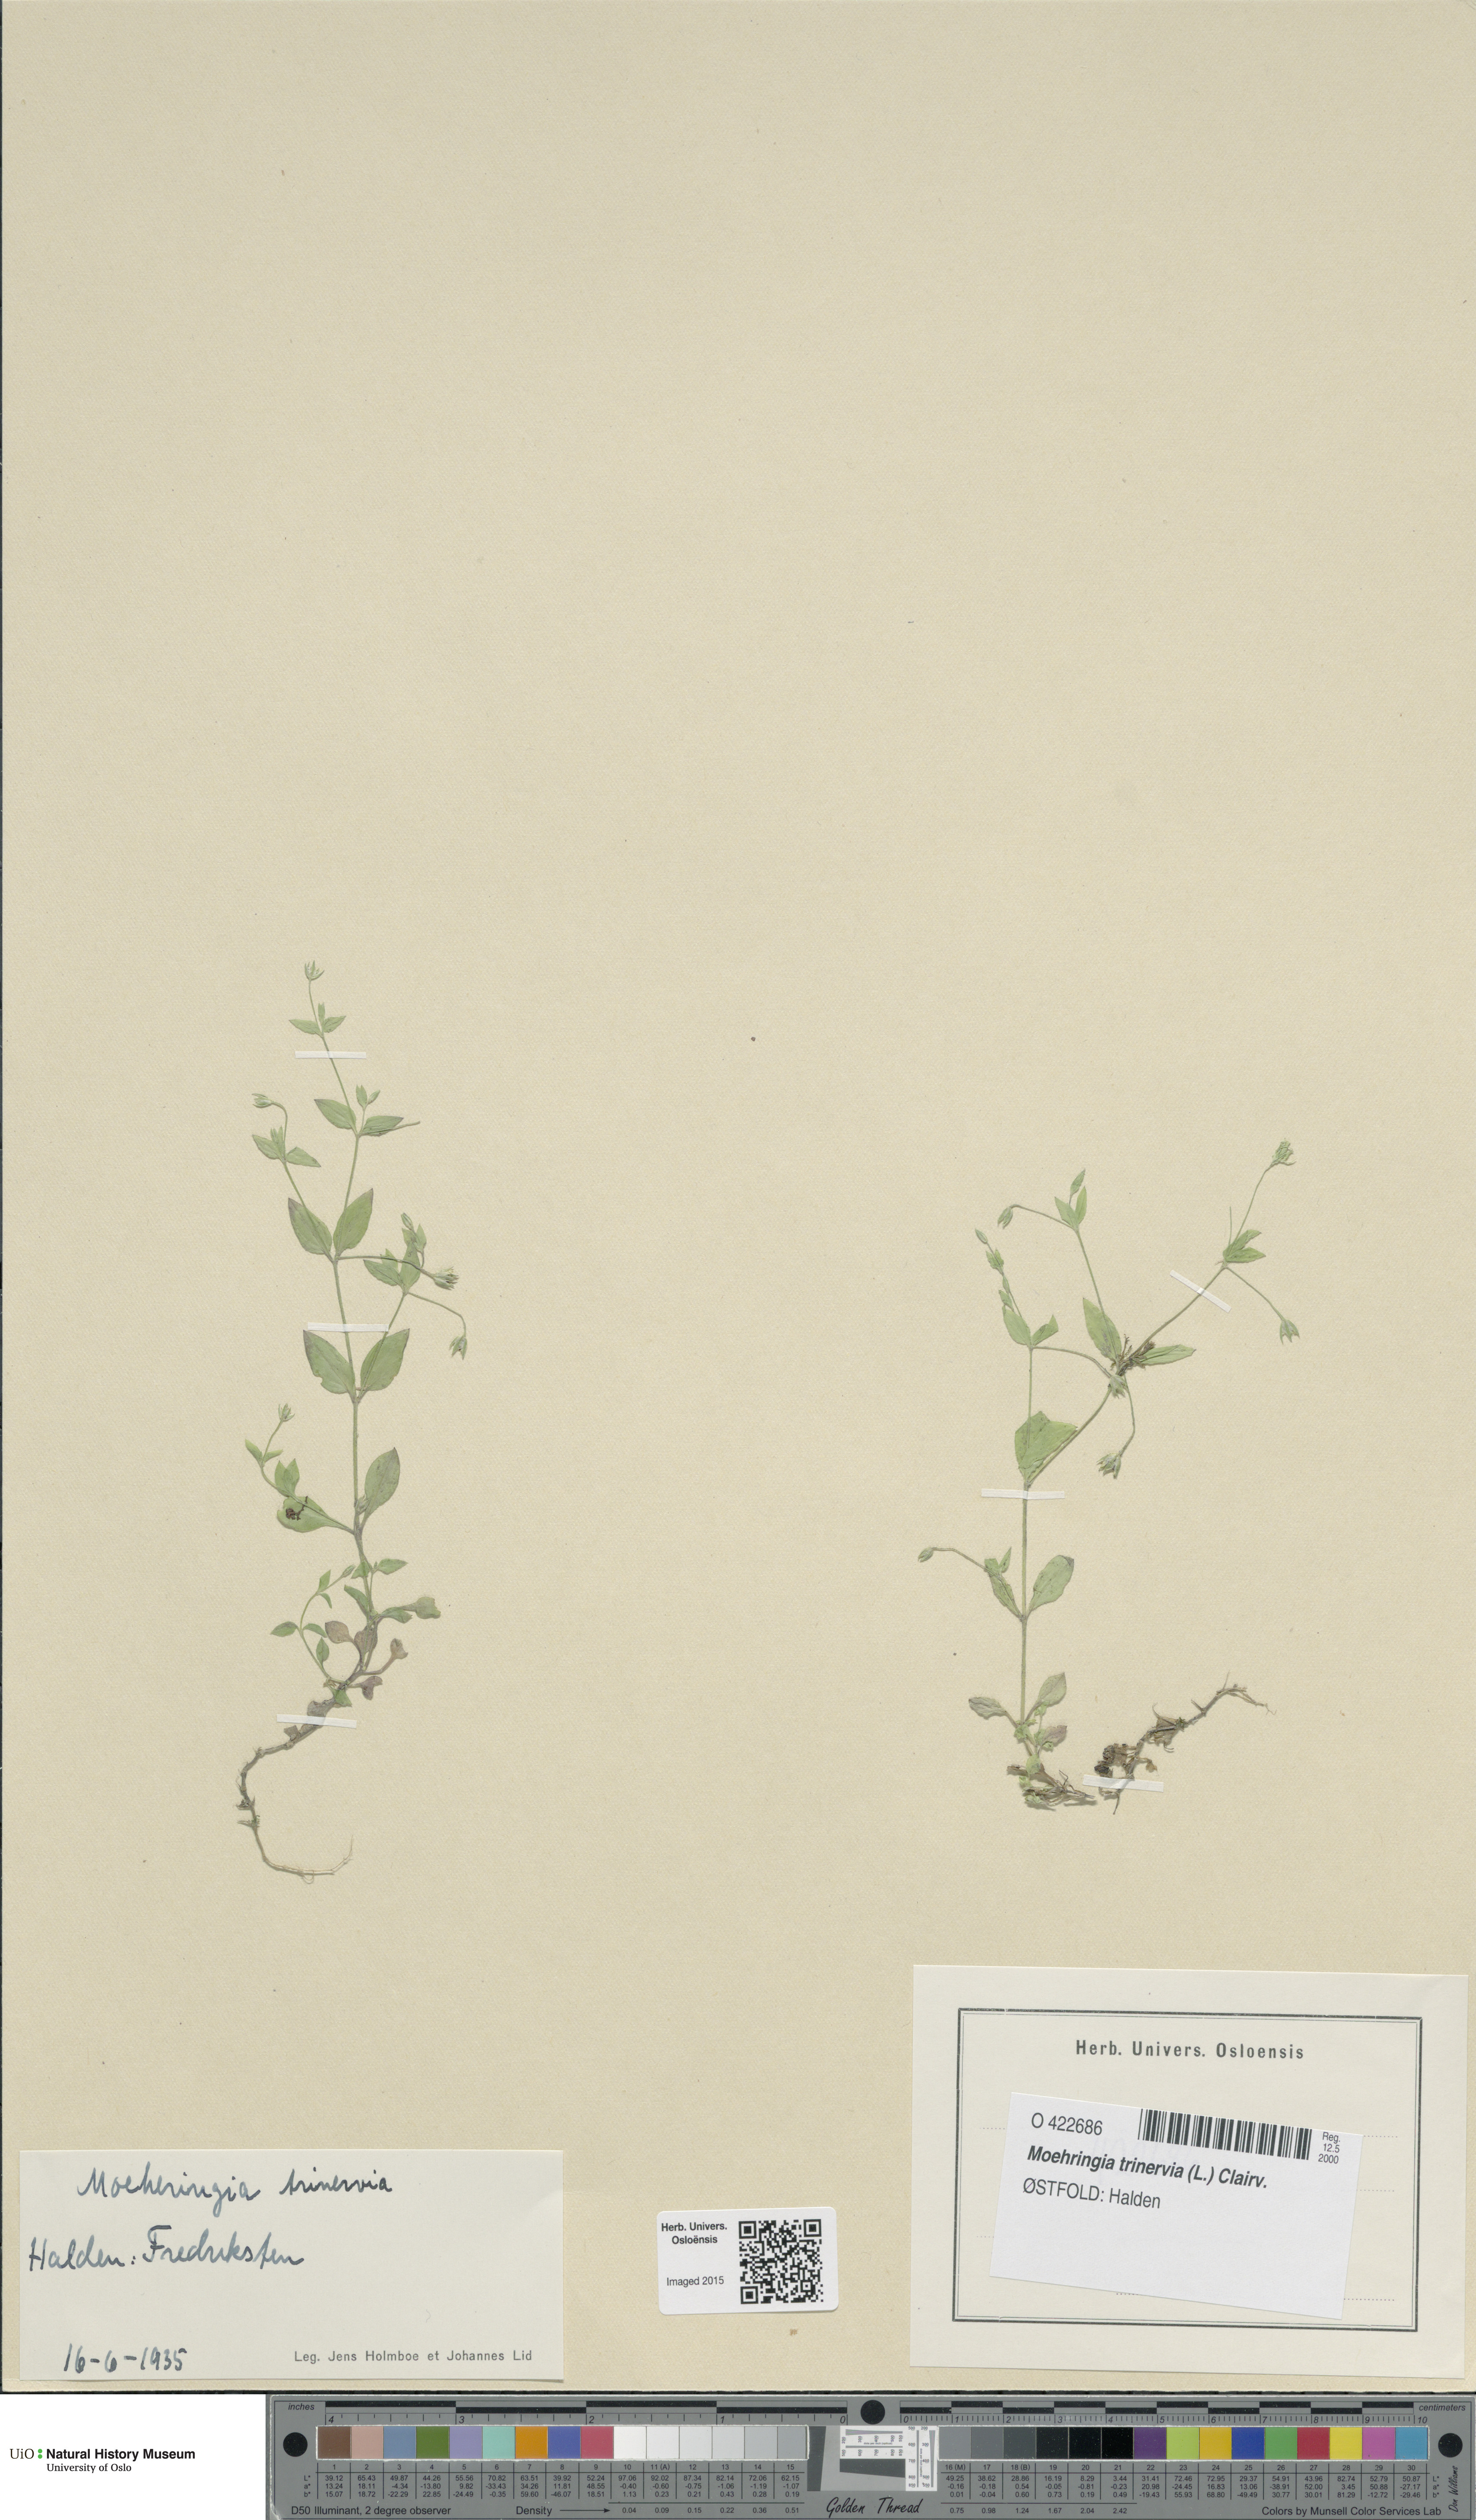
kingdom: Plantae
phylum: Tracheophyta
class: Magnoliopsida
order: Caryophyllales
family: Caryophyllaceae
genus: Moehringia
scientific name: Moehringia trinervia
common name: Three-nerved sandwort
